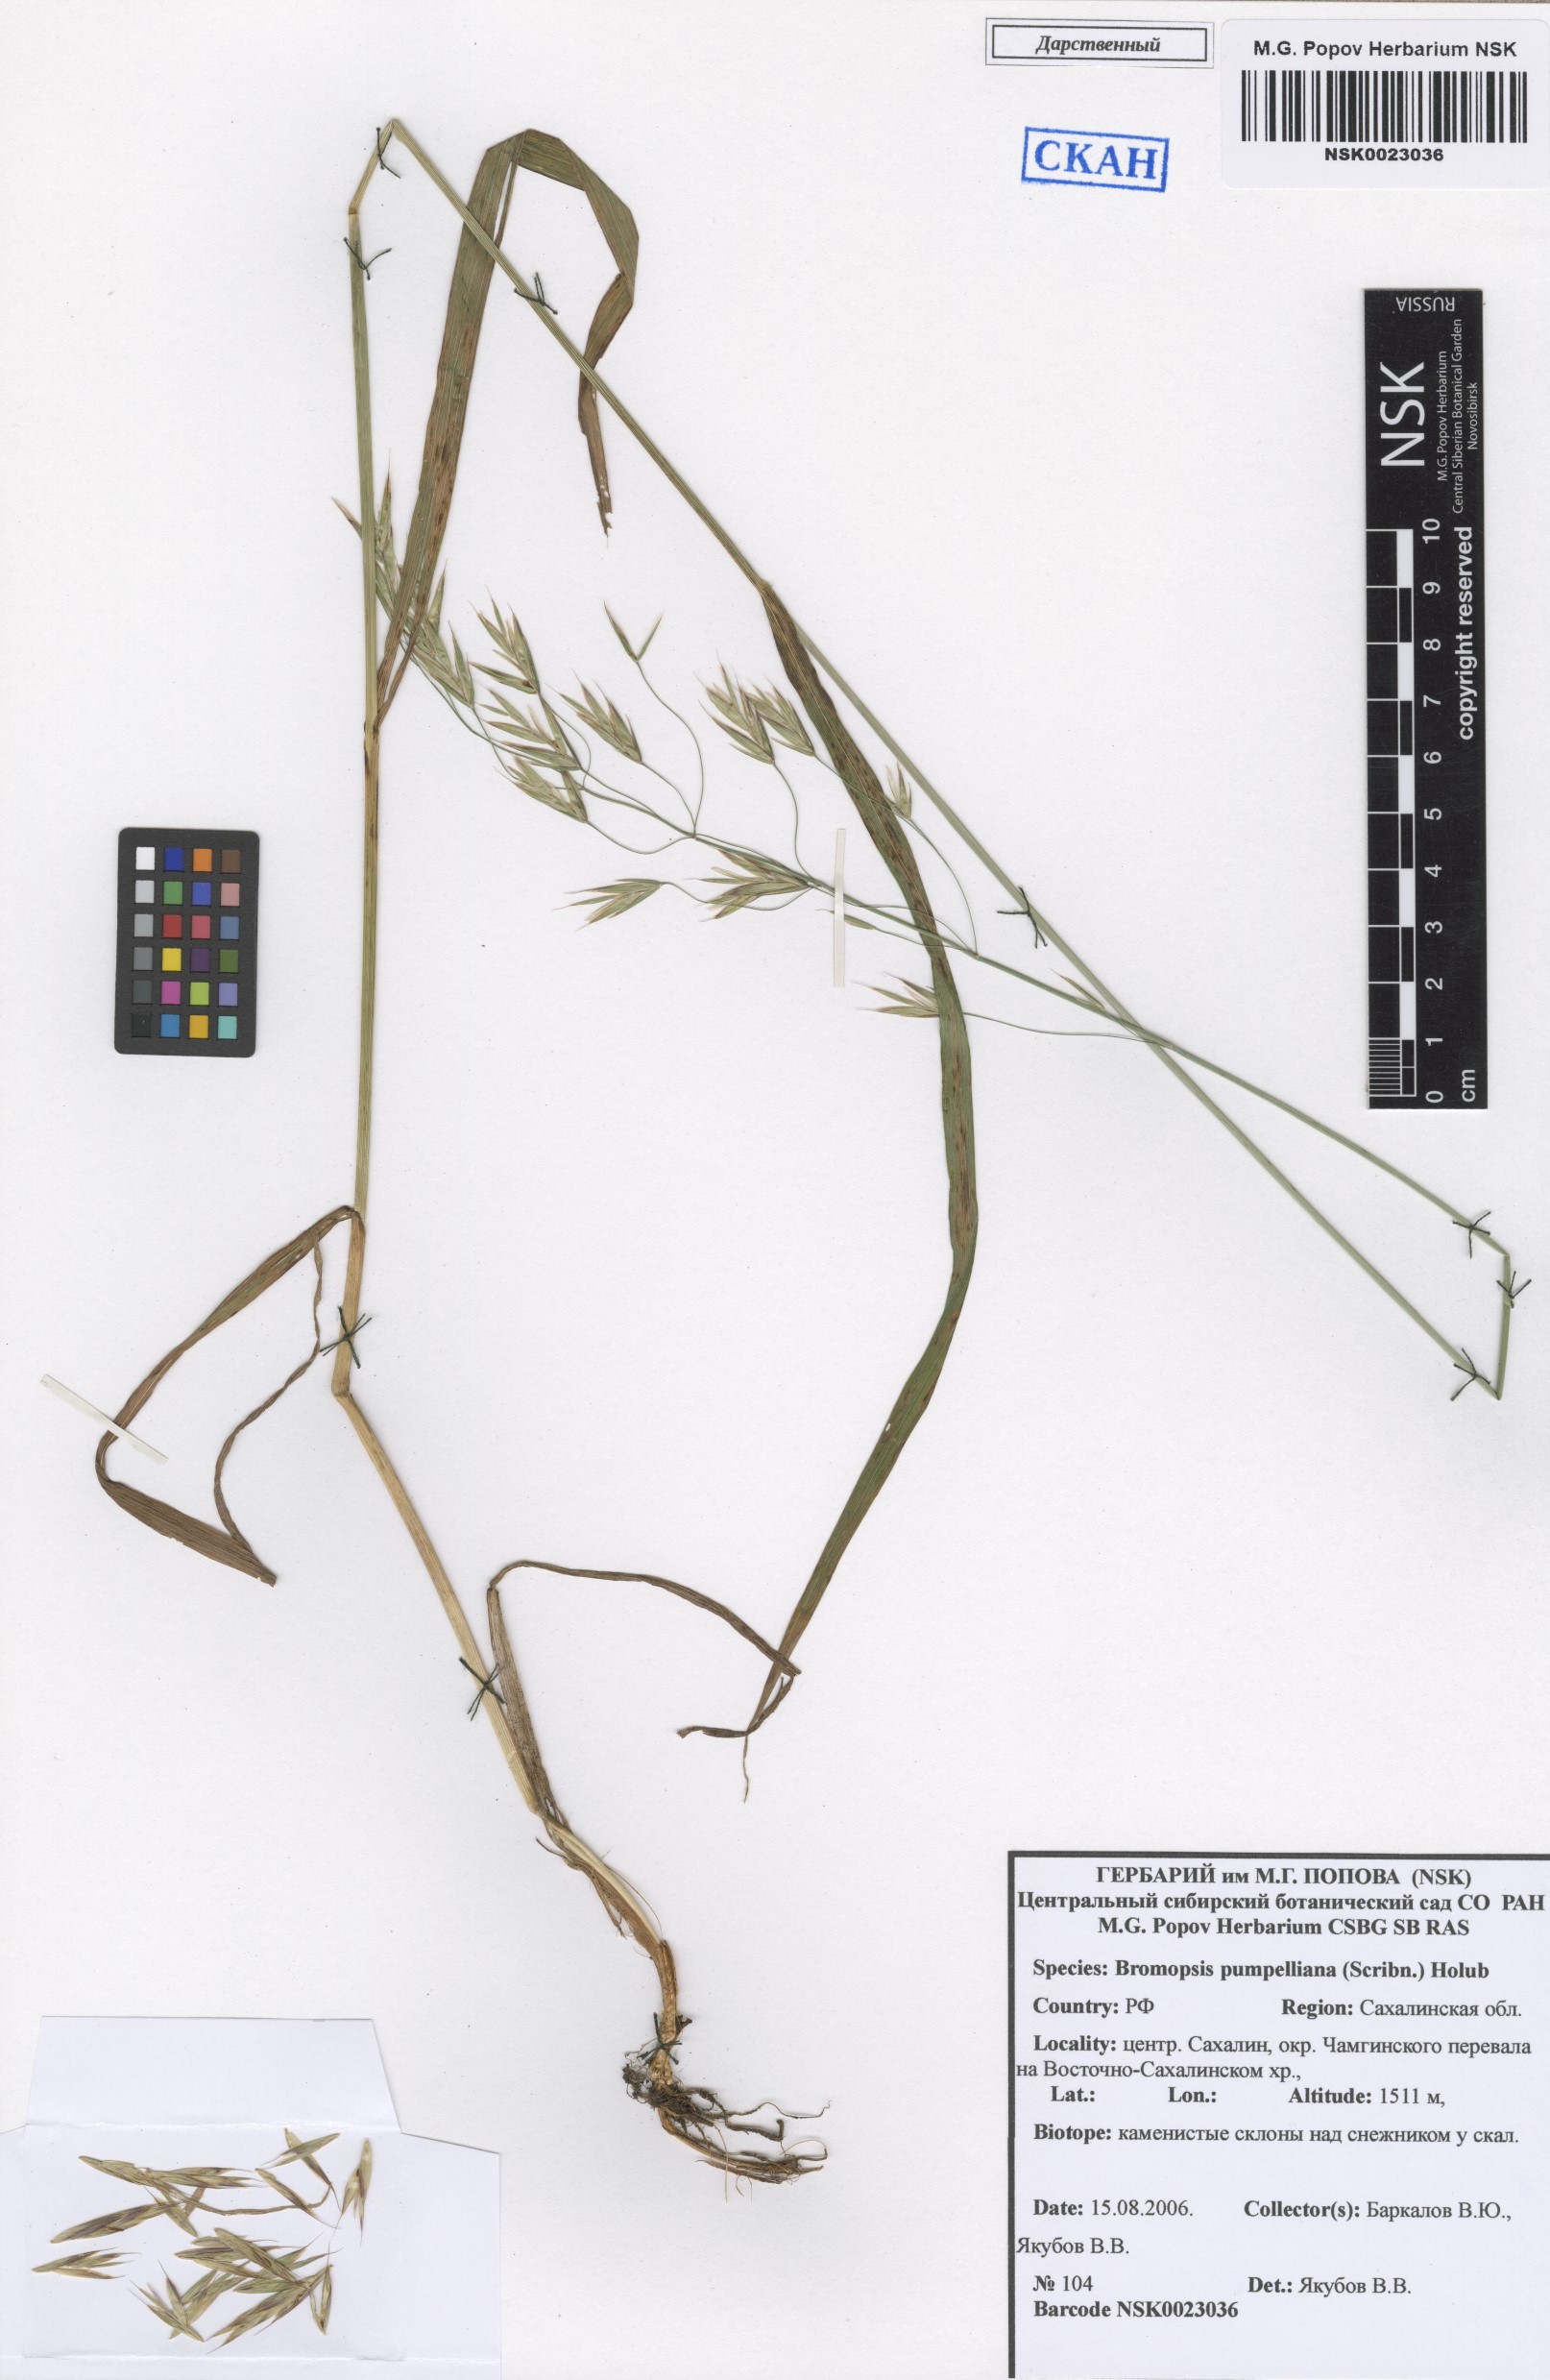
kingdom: Plantae
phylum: Tracheophyta
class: Liliopsida
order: Poales
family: Poaceae
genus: Bromus
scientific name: Bromus pumpellianus
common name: Pumpelly's brome
